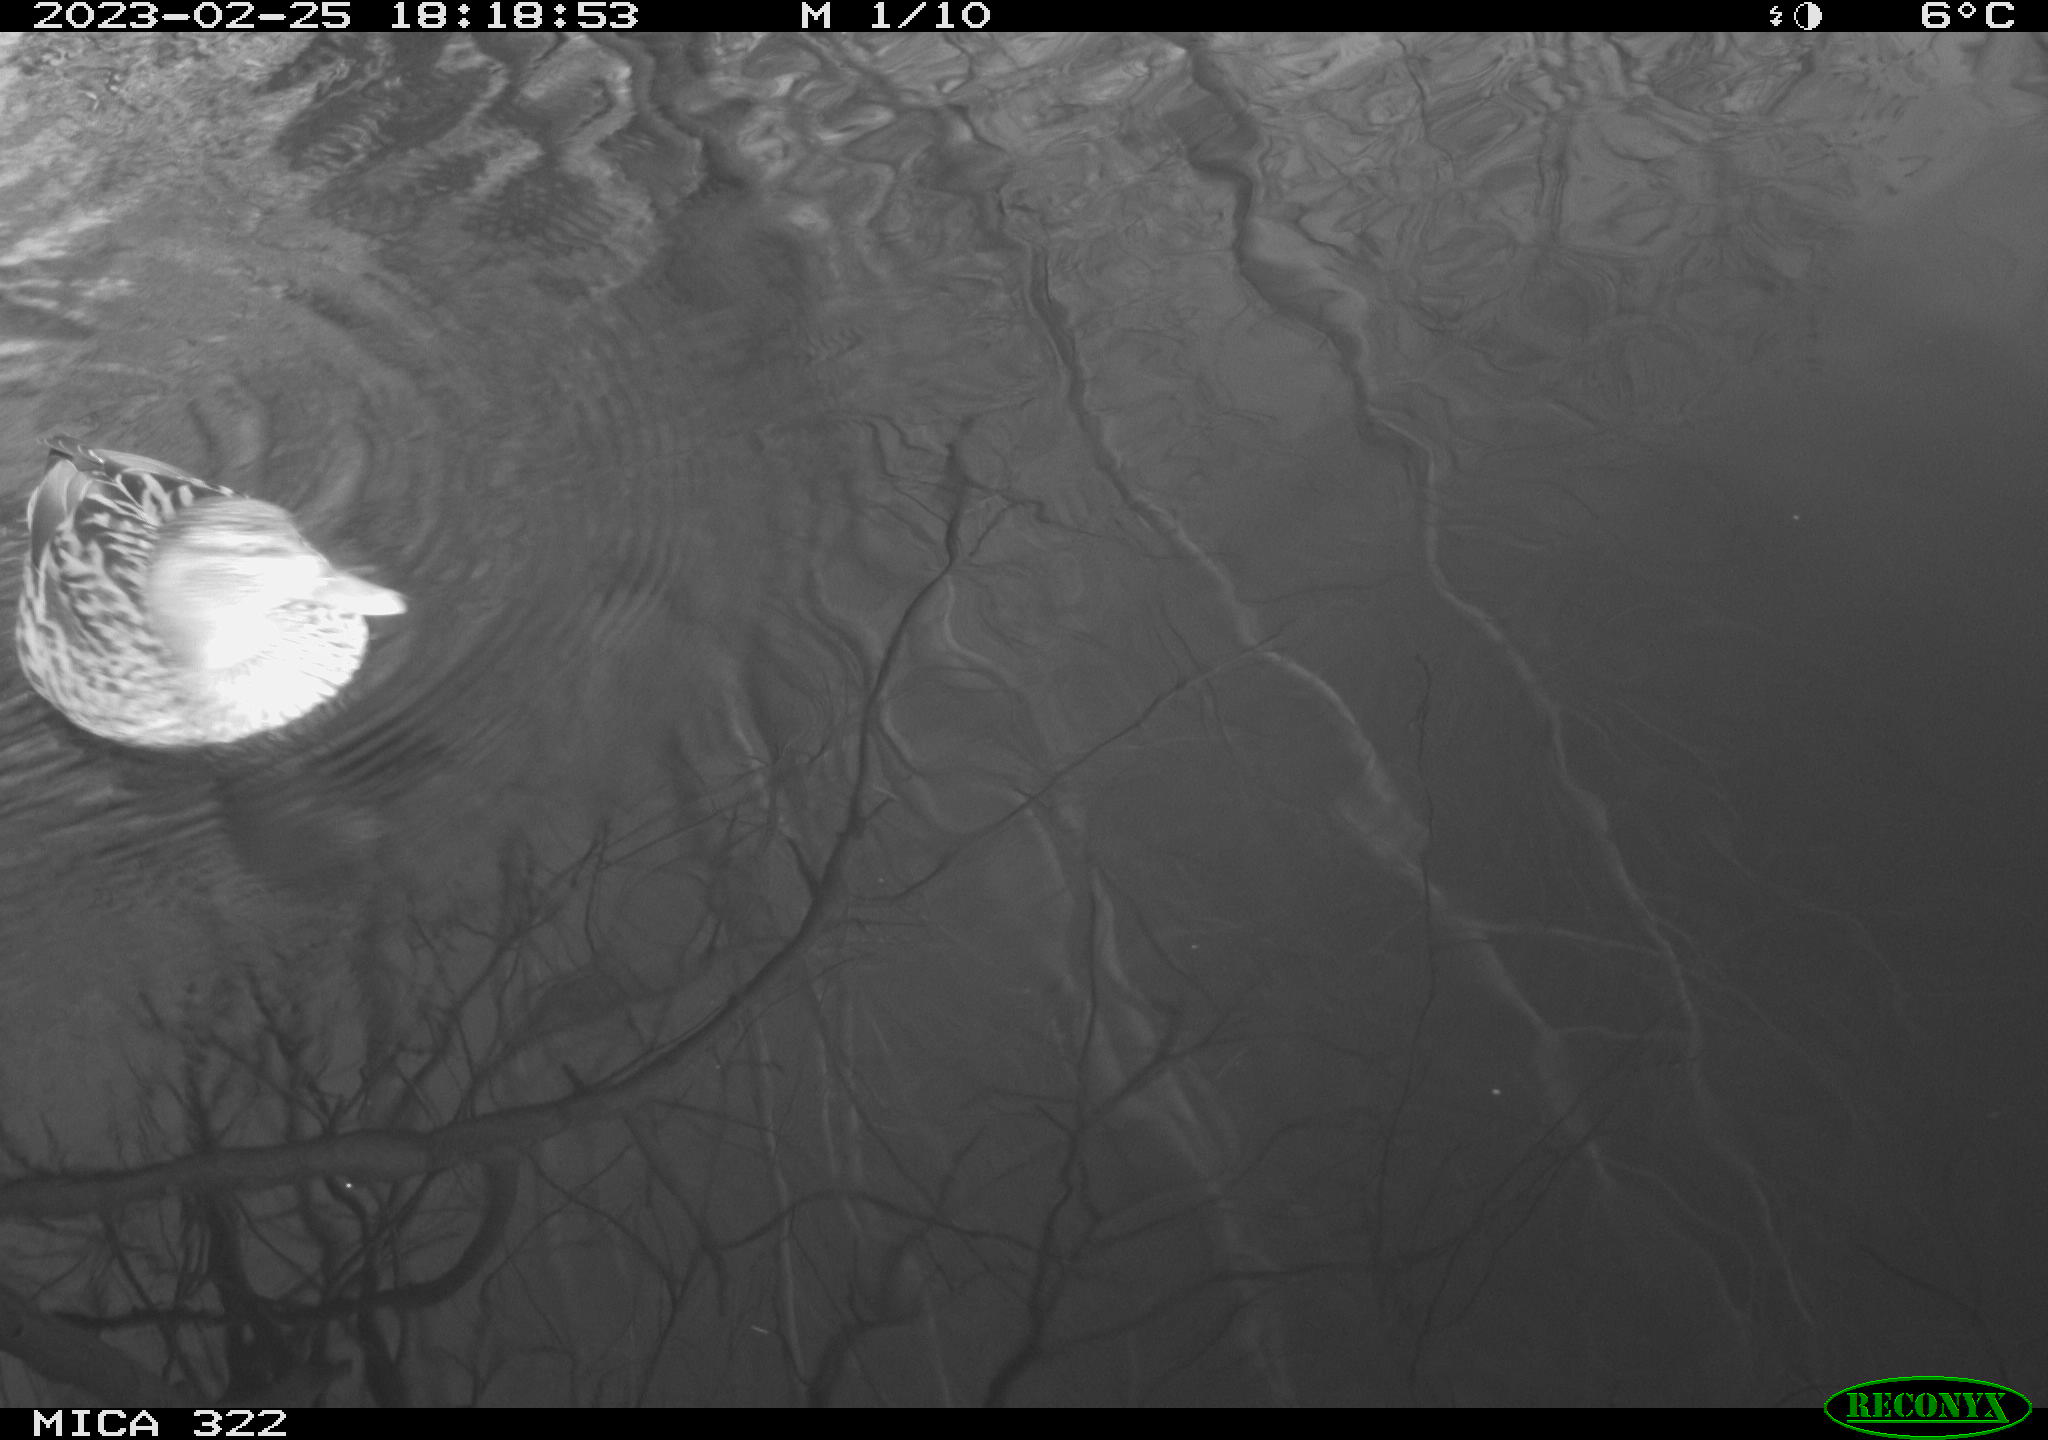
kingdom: Animalia
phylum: Chordata
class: Aves
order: Anseriformes
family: Anatidae
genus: Anas
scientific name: Anas
